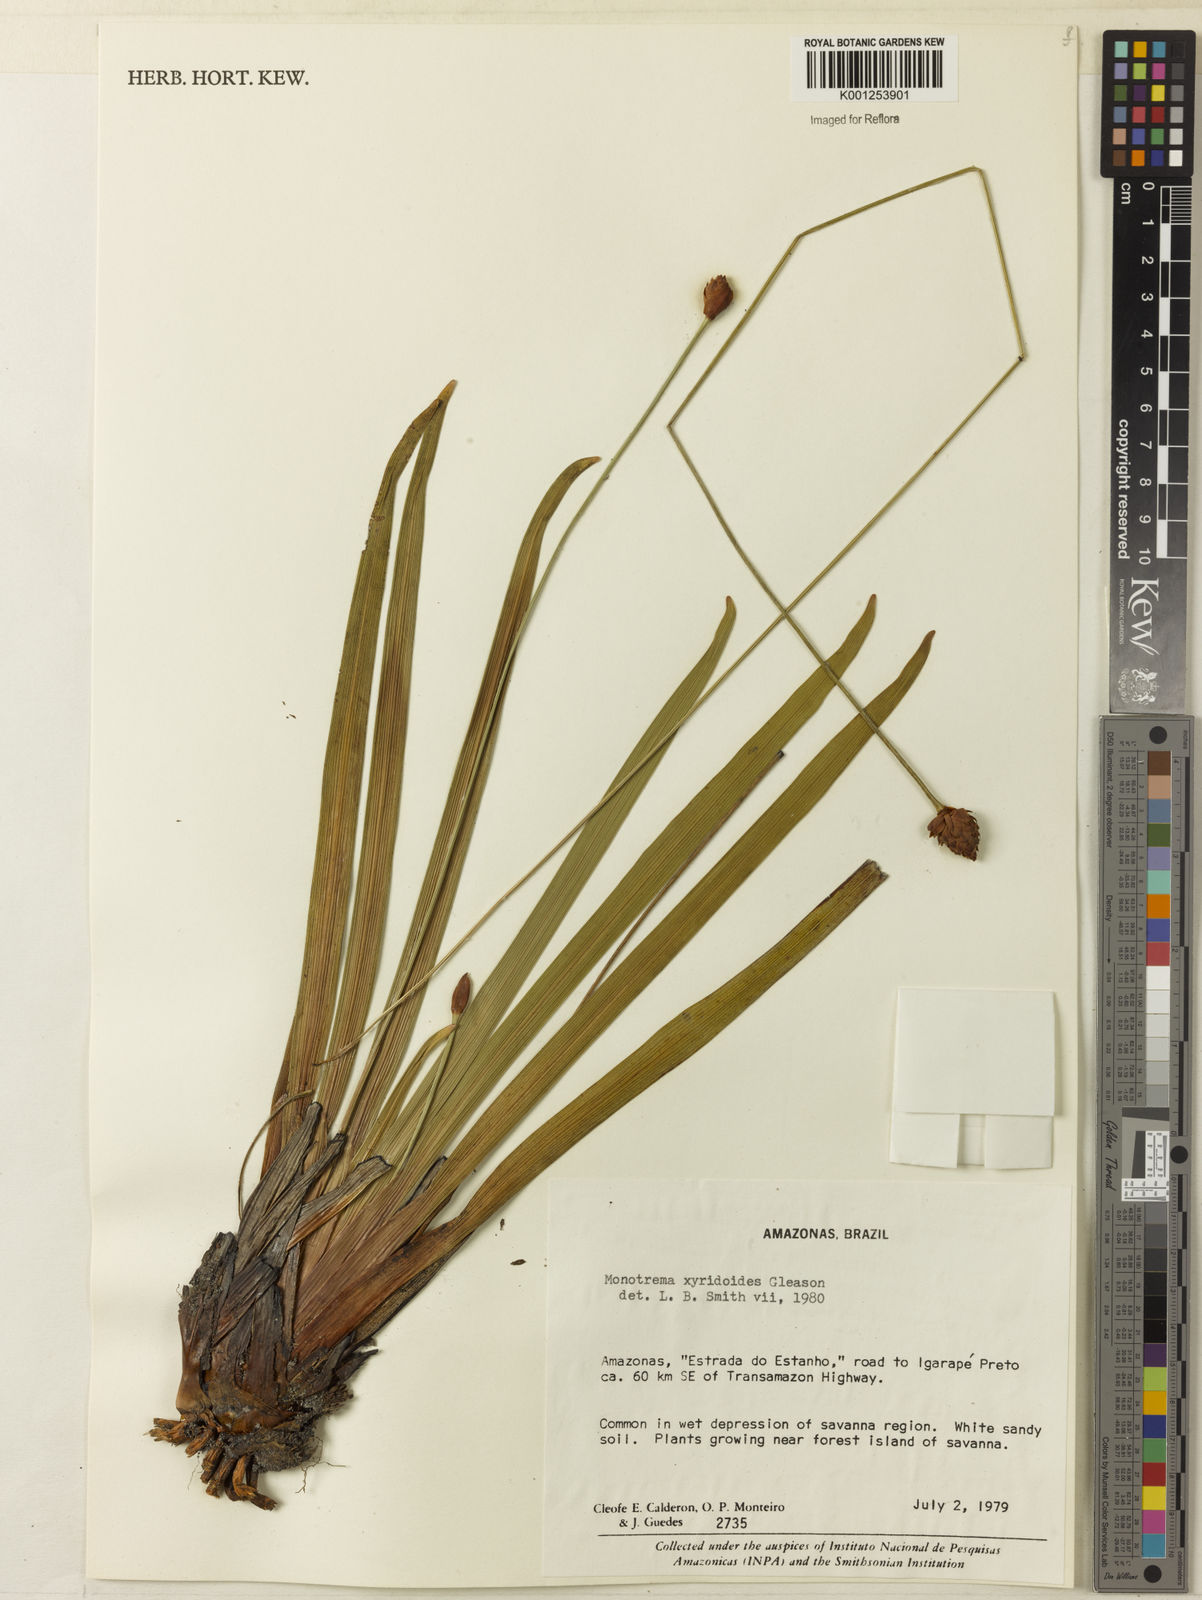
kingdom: Plantae
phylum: Tracheophyta
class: Liliopsida
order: Poales
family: Rapateaceae
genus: Monotrema
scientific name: Monotrema xyridoides
